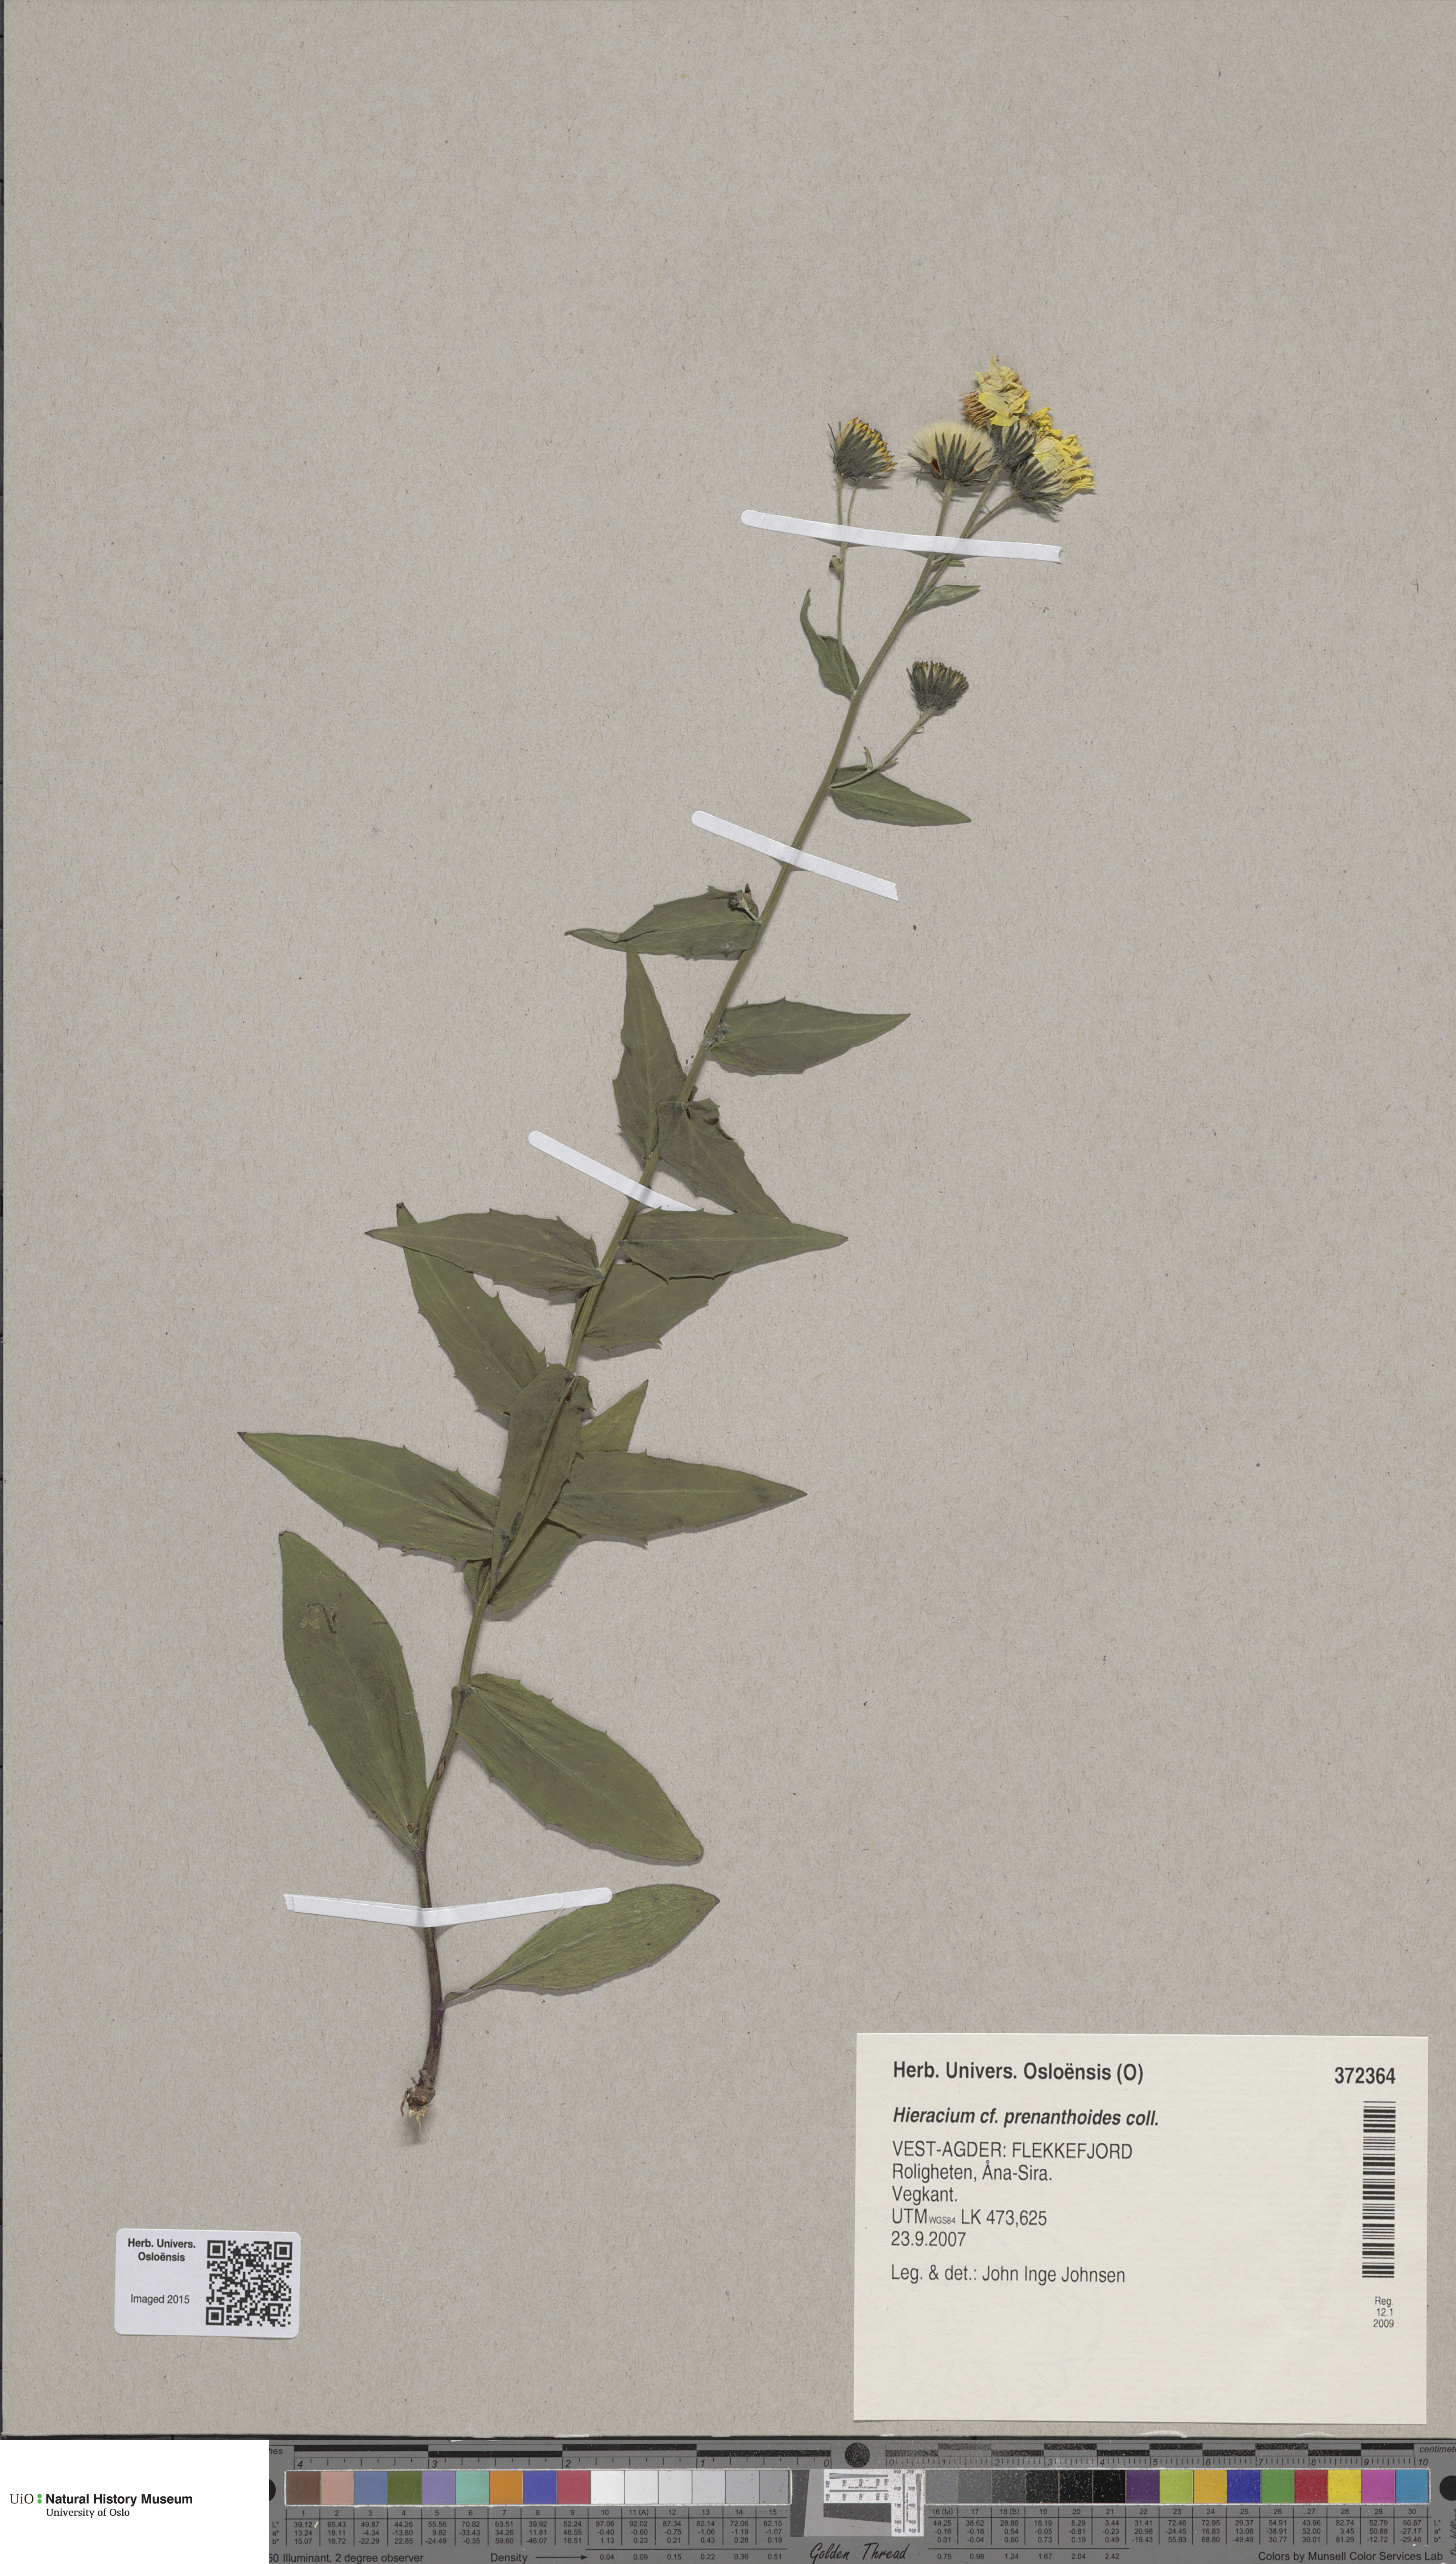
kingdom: Plantae
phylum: Tracheophyta
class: Magnoliopsida
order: Asterales
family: Asteraceae
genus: Hieracium
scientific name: Hieracium prenanthoides
